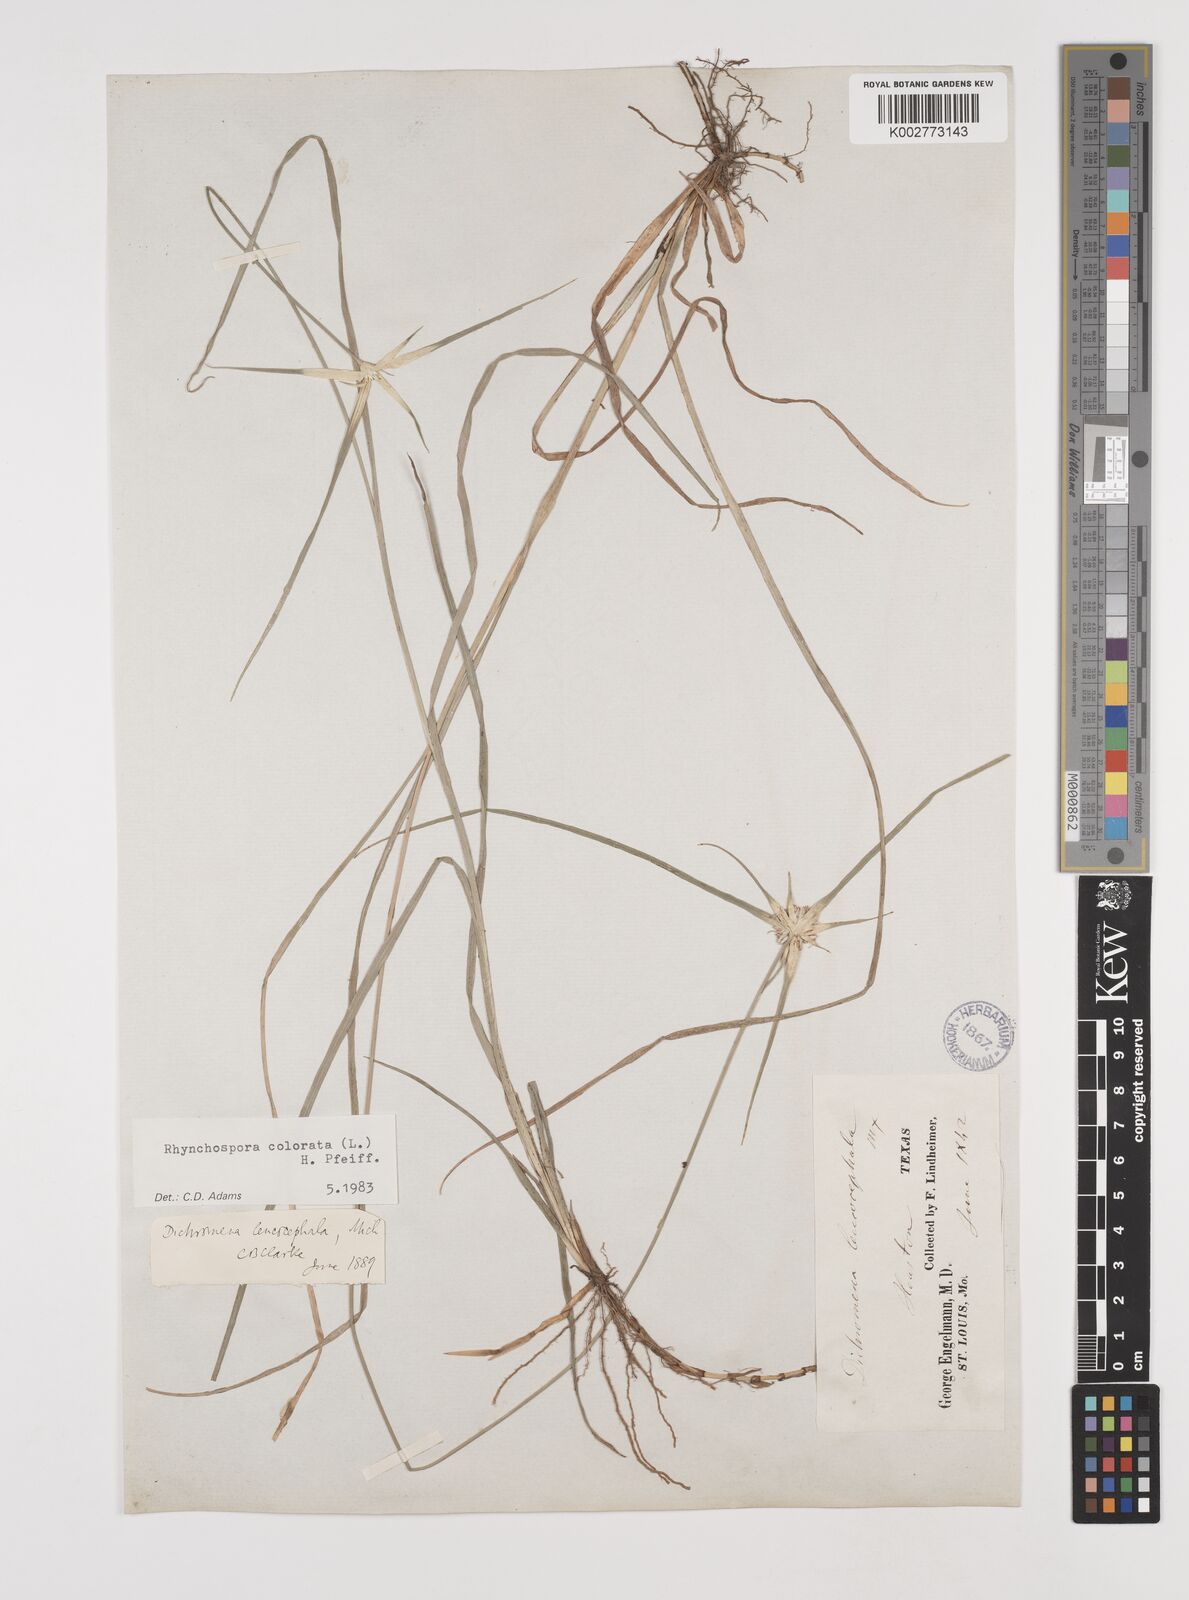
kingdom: Plantae
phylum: Tracheophyta
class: Liliopsida
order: Poales
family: Cyperaceae
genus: Rhynchospora
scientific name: Rhynchospora colorata
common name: Star sedge
